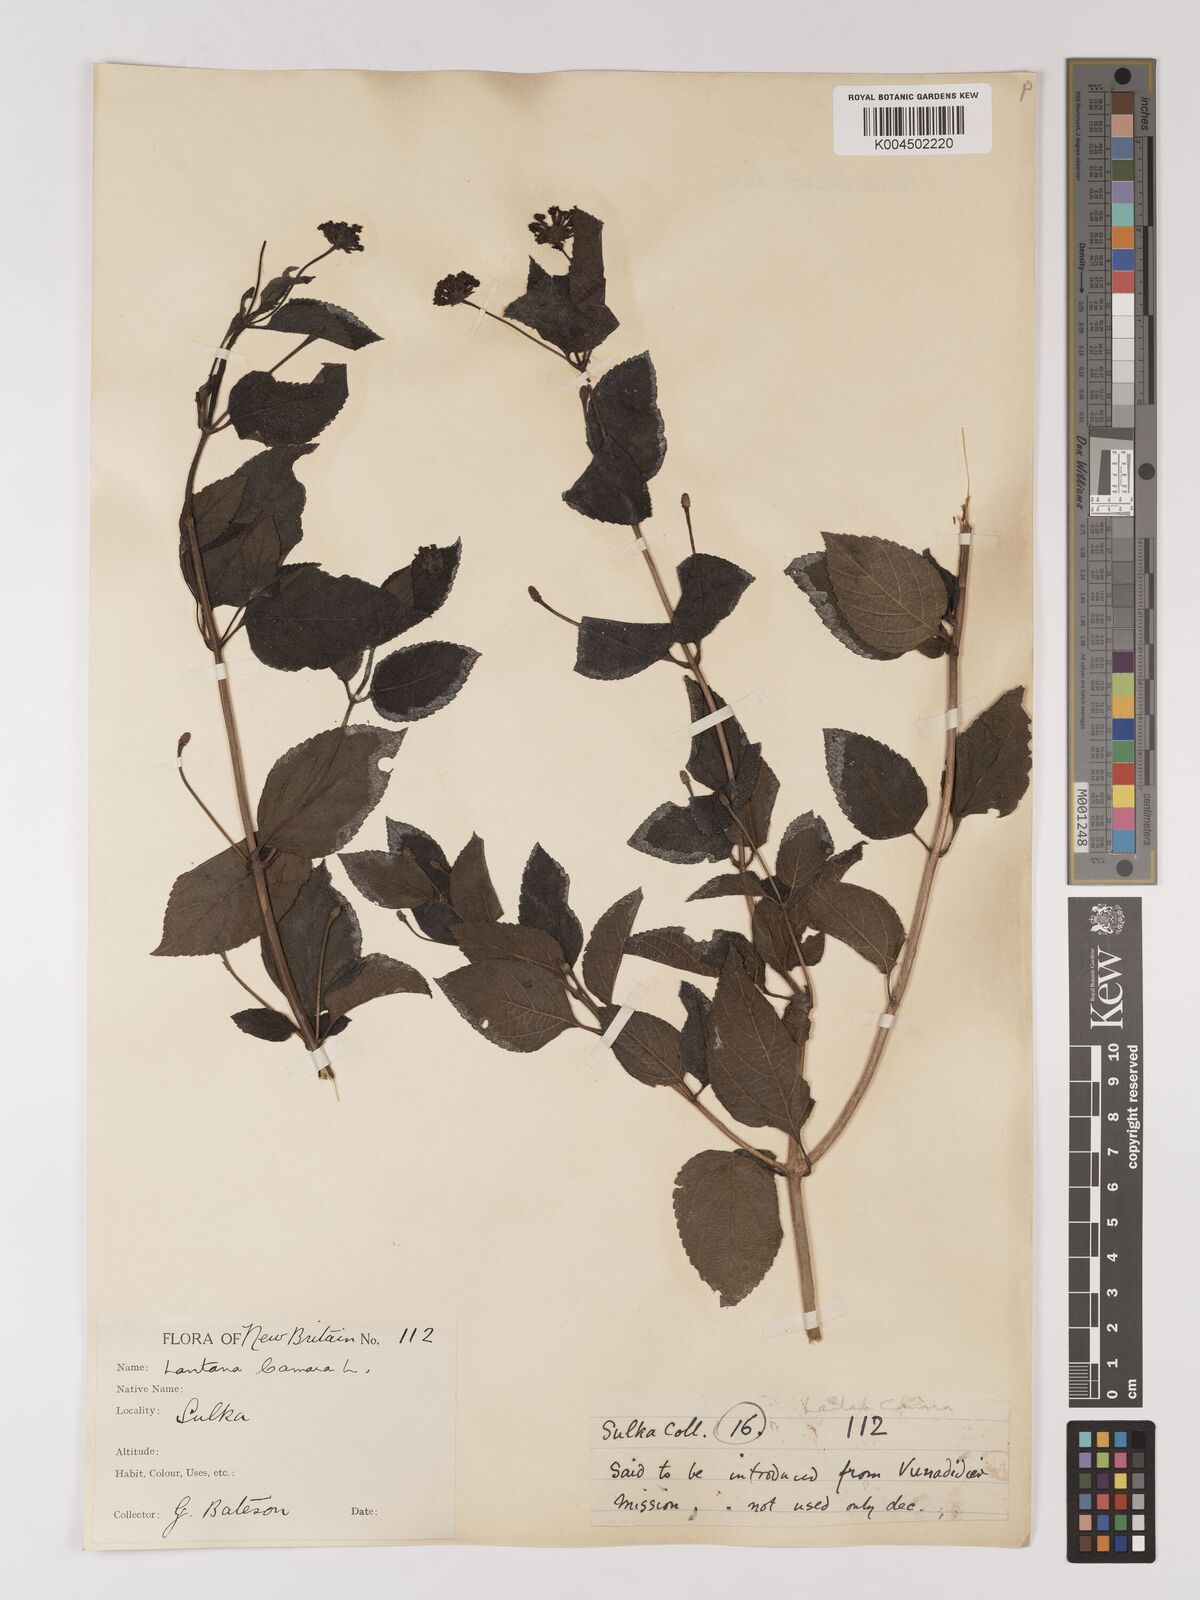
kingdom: Plantae
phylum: Tracheophyta
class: Magnoliopsida
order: Lamiales
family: Verbenaceae
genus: Lantana
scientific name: Lantana camara
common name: Lantana
